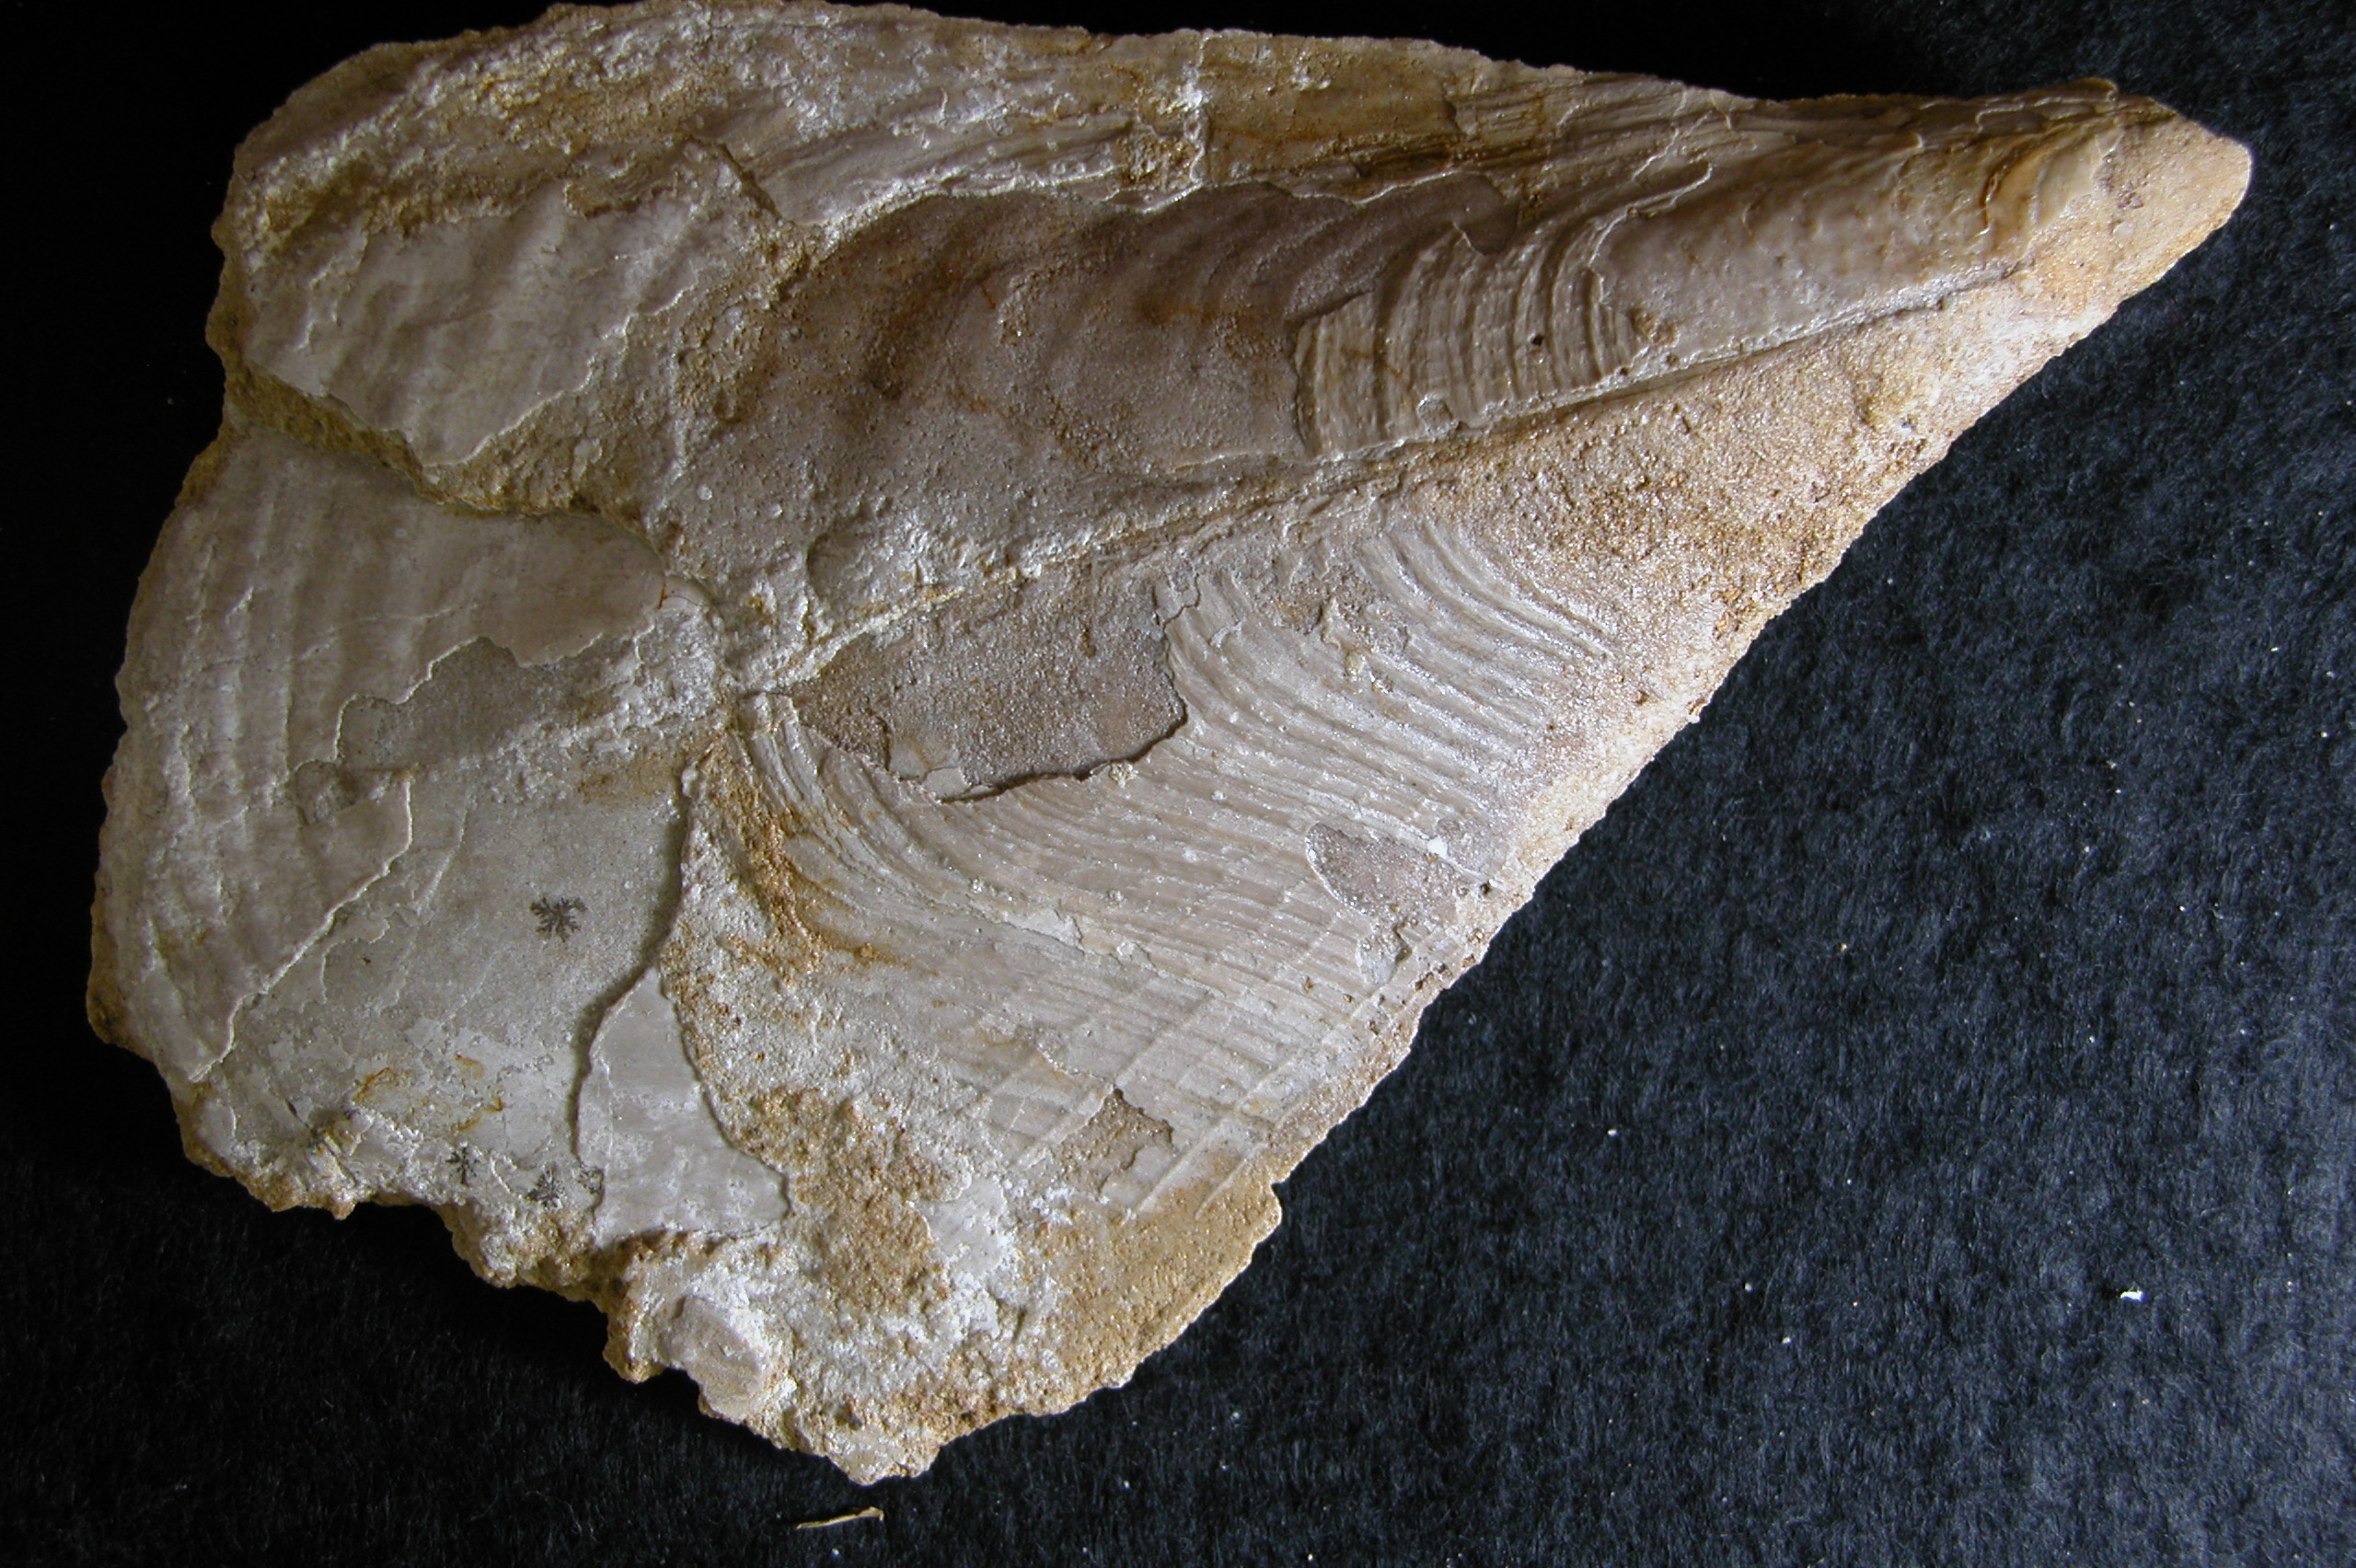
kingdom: Animalia
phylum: Mollusca
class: Bivalvia
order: Ostreida
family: Pinnidae
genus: Pinna
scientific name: Pinna folium
